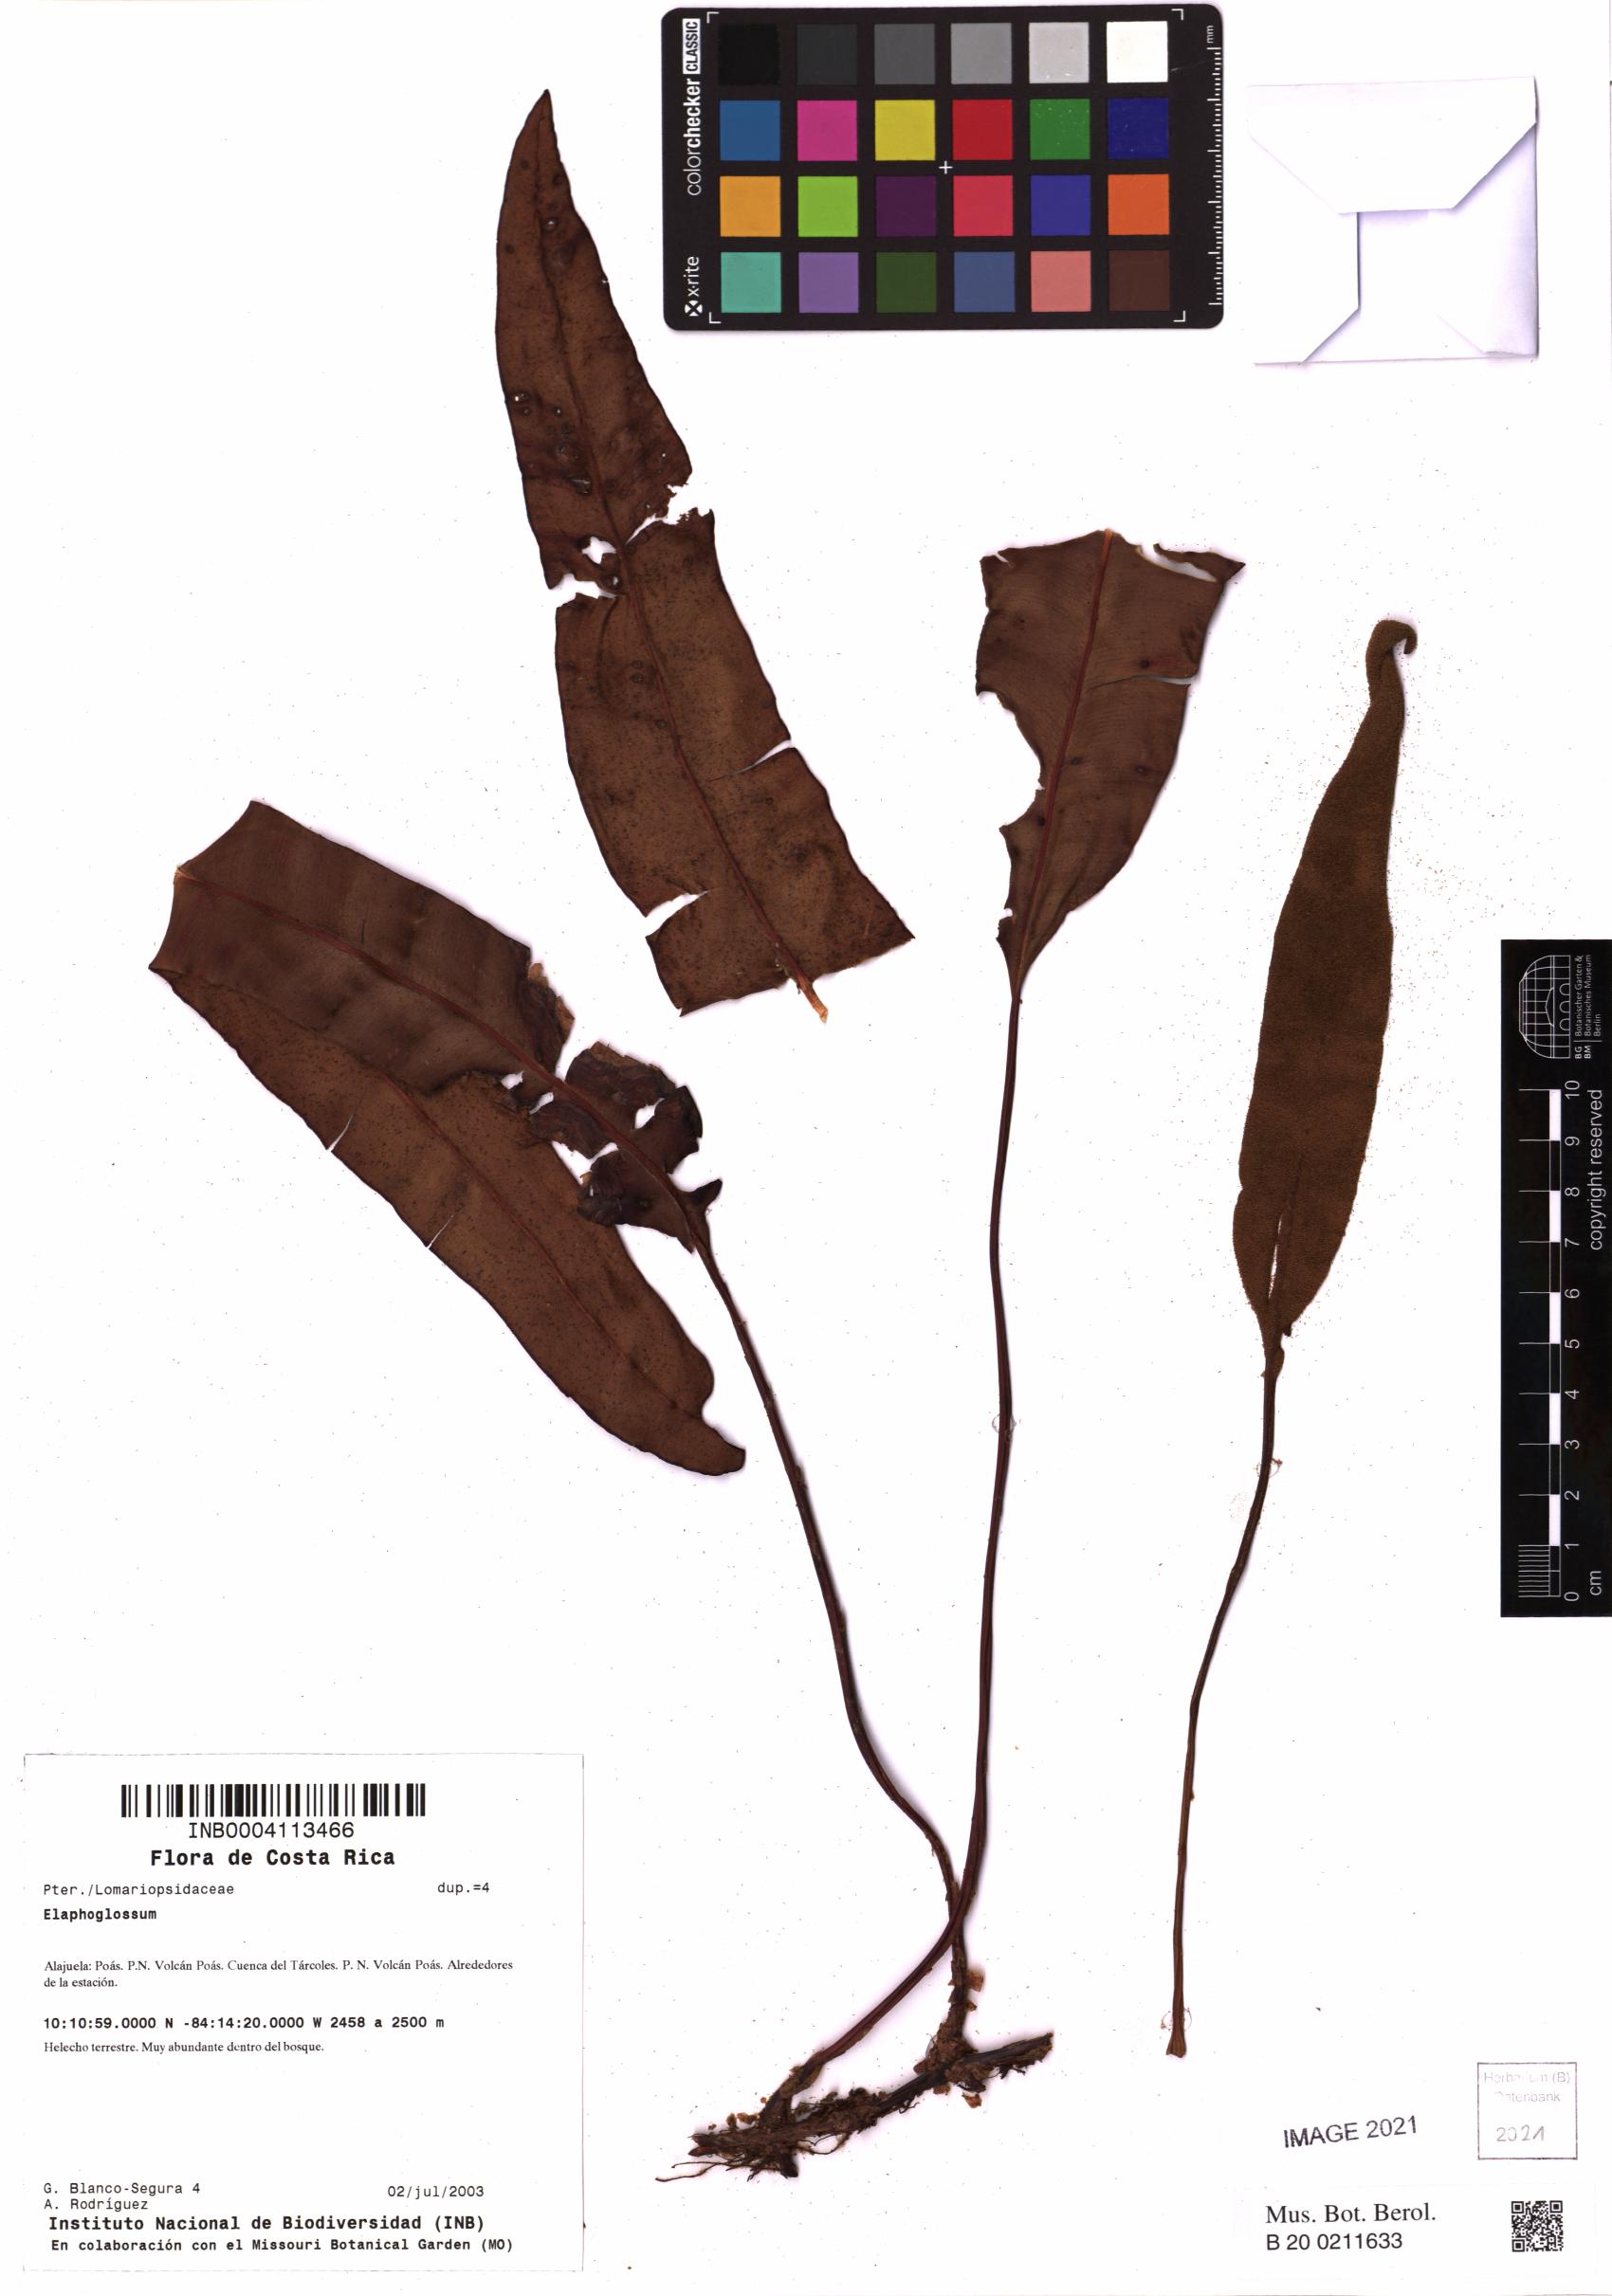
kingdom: Plantae
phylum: Tracheophyta
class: Polypodiopsida
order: Polypodiales
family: Dryopteridaceae
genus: Elaphoglossum
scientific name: Elaphoglossum
